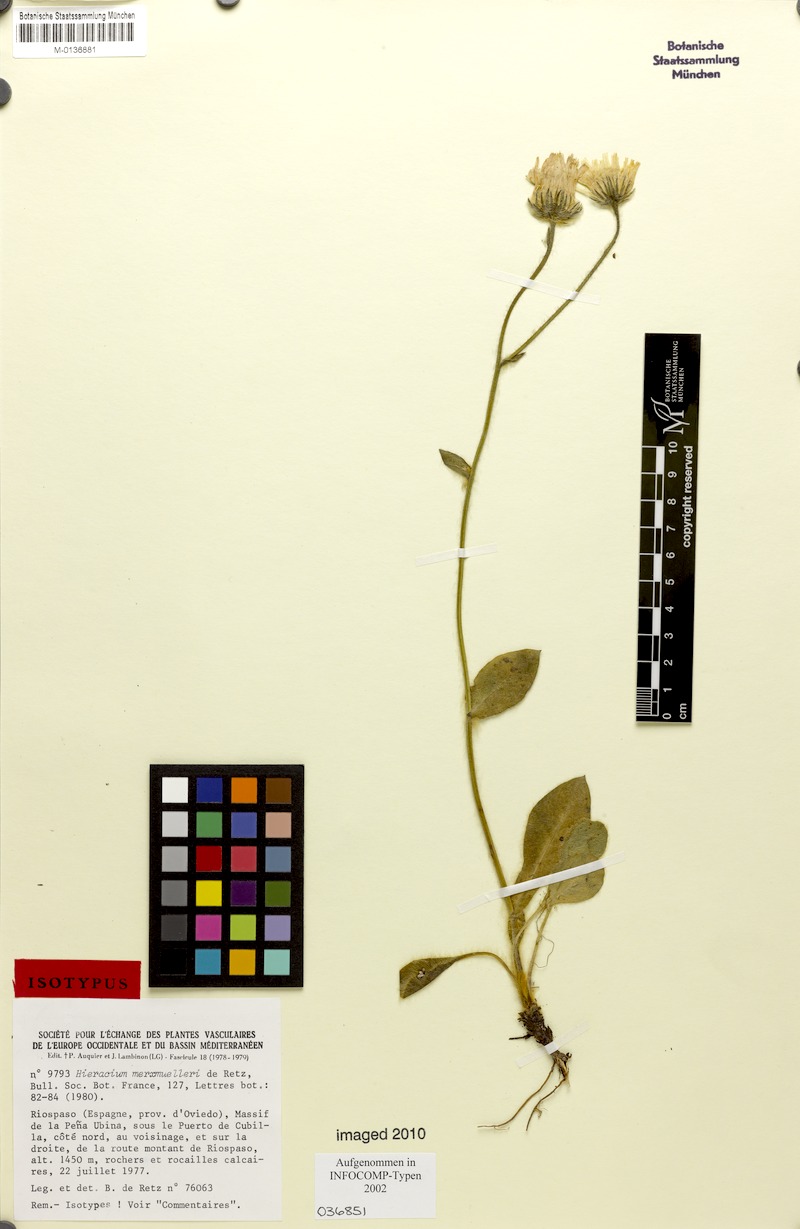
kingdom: Plantae
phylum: Tracheophyta
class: Magnoliopsida
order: Asterales
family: Asteraceae
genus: Hieracium
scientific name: Hieracium merxmuelleri
